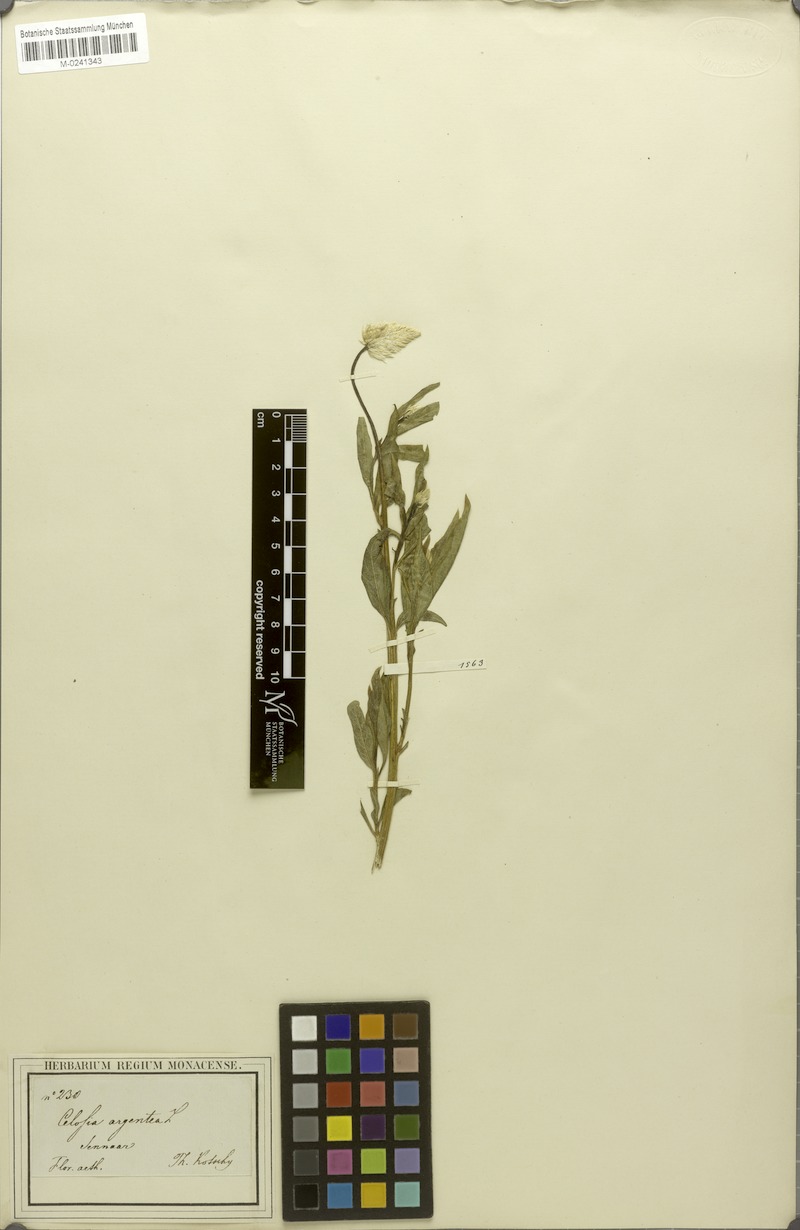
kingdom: Plantae
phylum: Tracheophyta
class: Magnoliopsida
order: Caryophyllales
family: Amaranthaceae
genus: Celosia
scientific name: Celosia argentea
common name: Feather cockscomb
